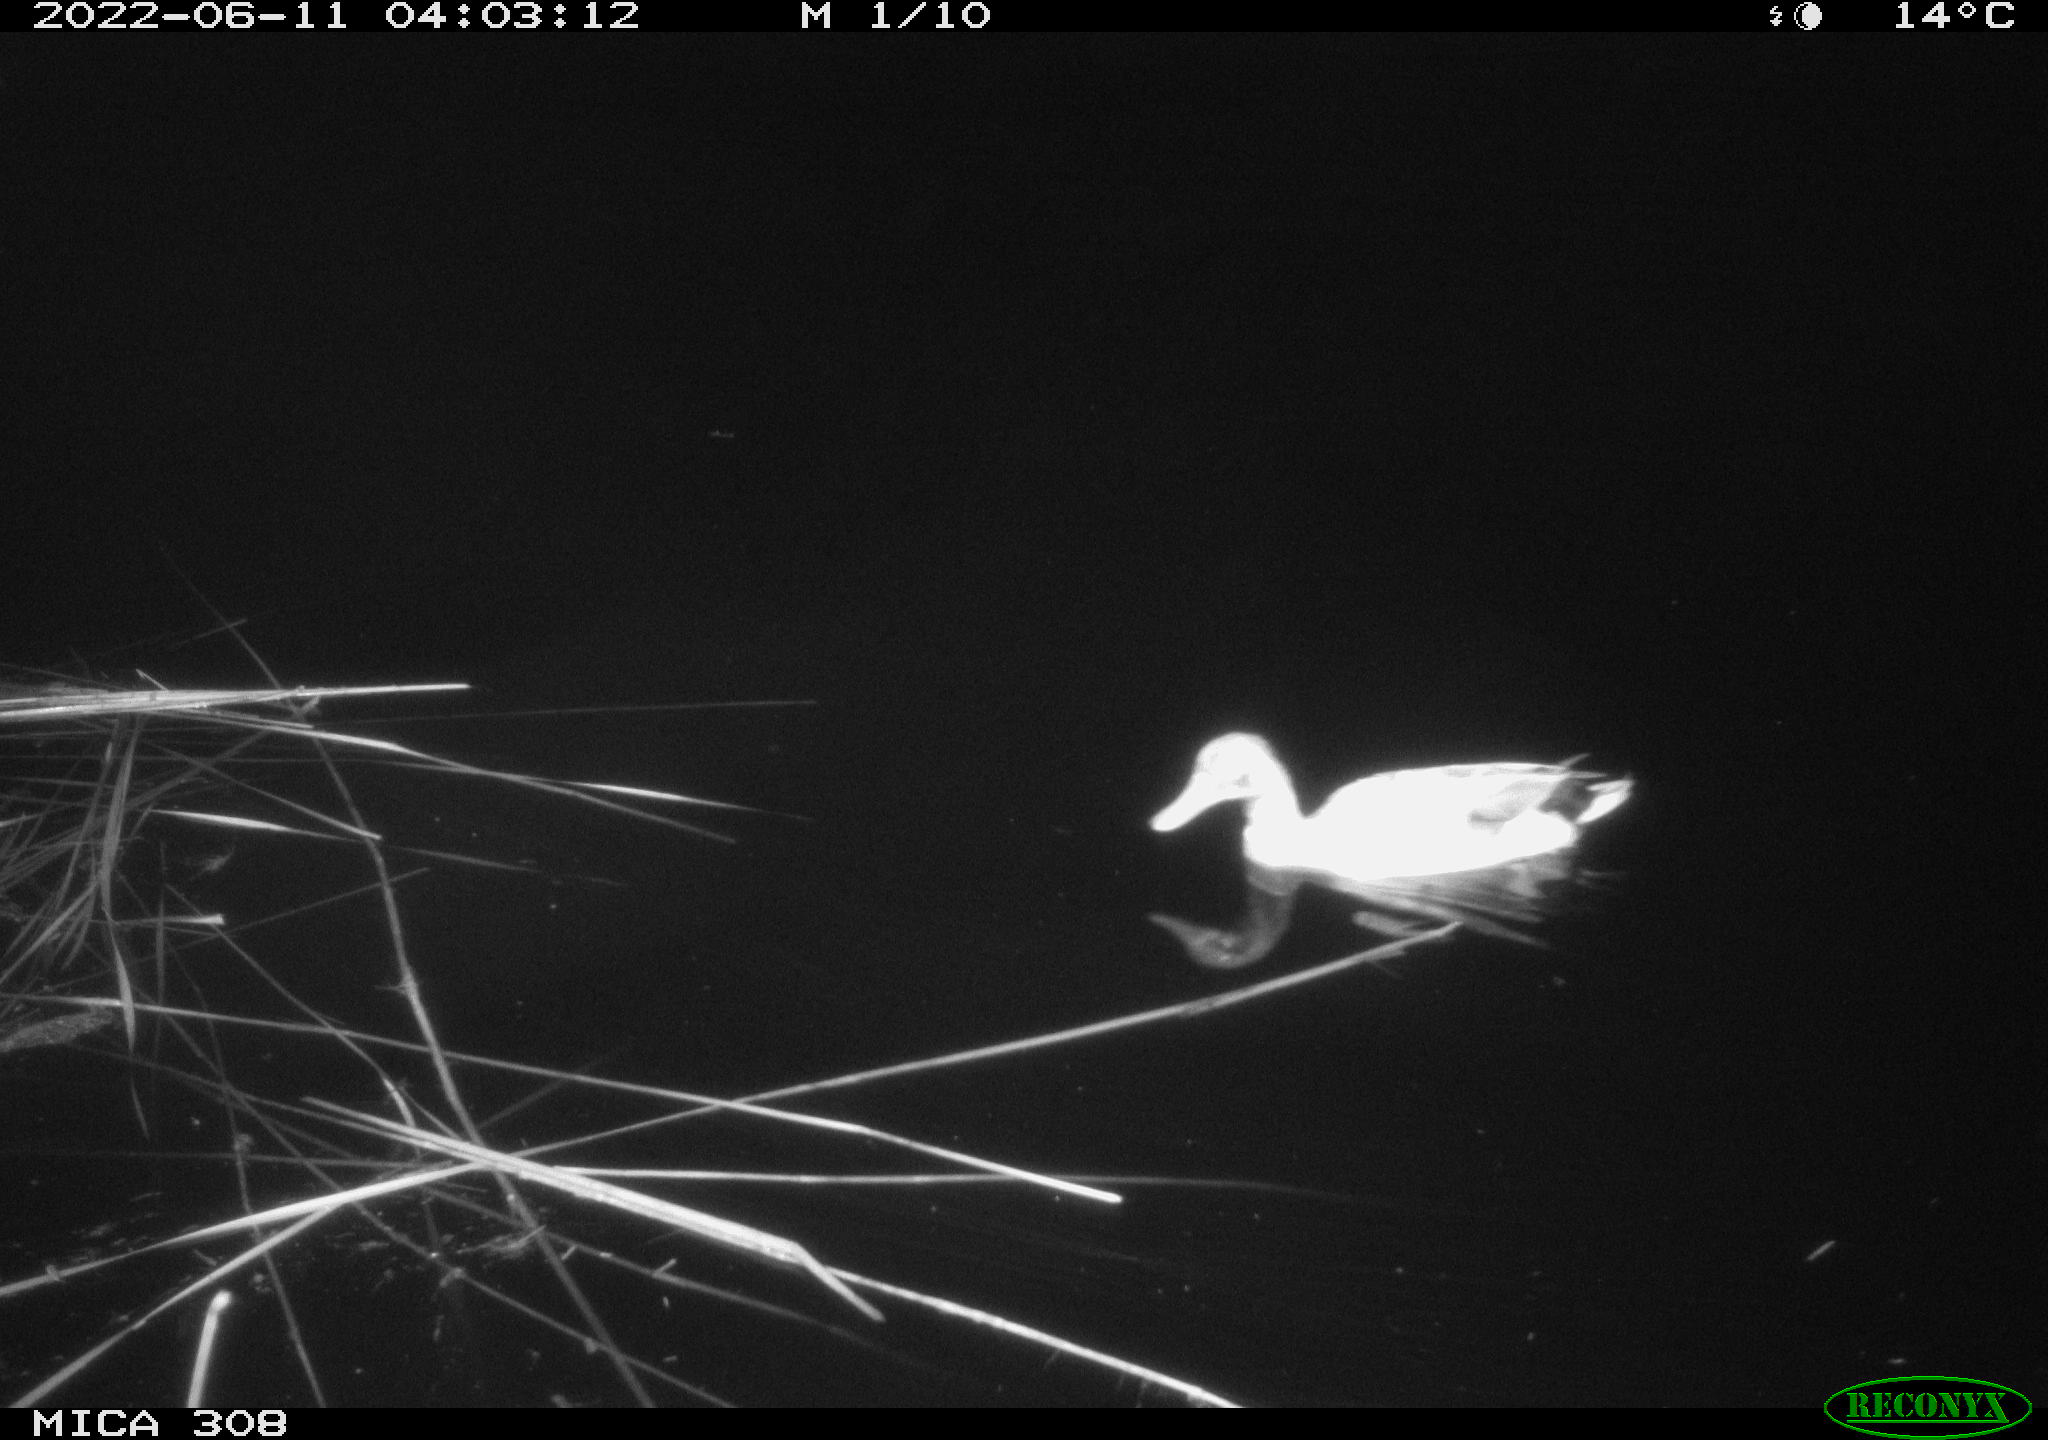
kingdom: Animalia
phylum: Chordata
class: Aves
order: Gruiformes
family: Rallidae
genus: Gallinula
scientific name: Gallinula chloropus
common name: Common moorhen
